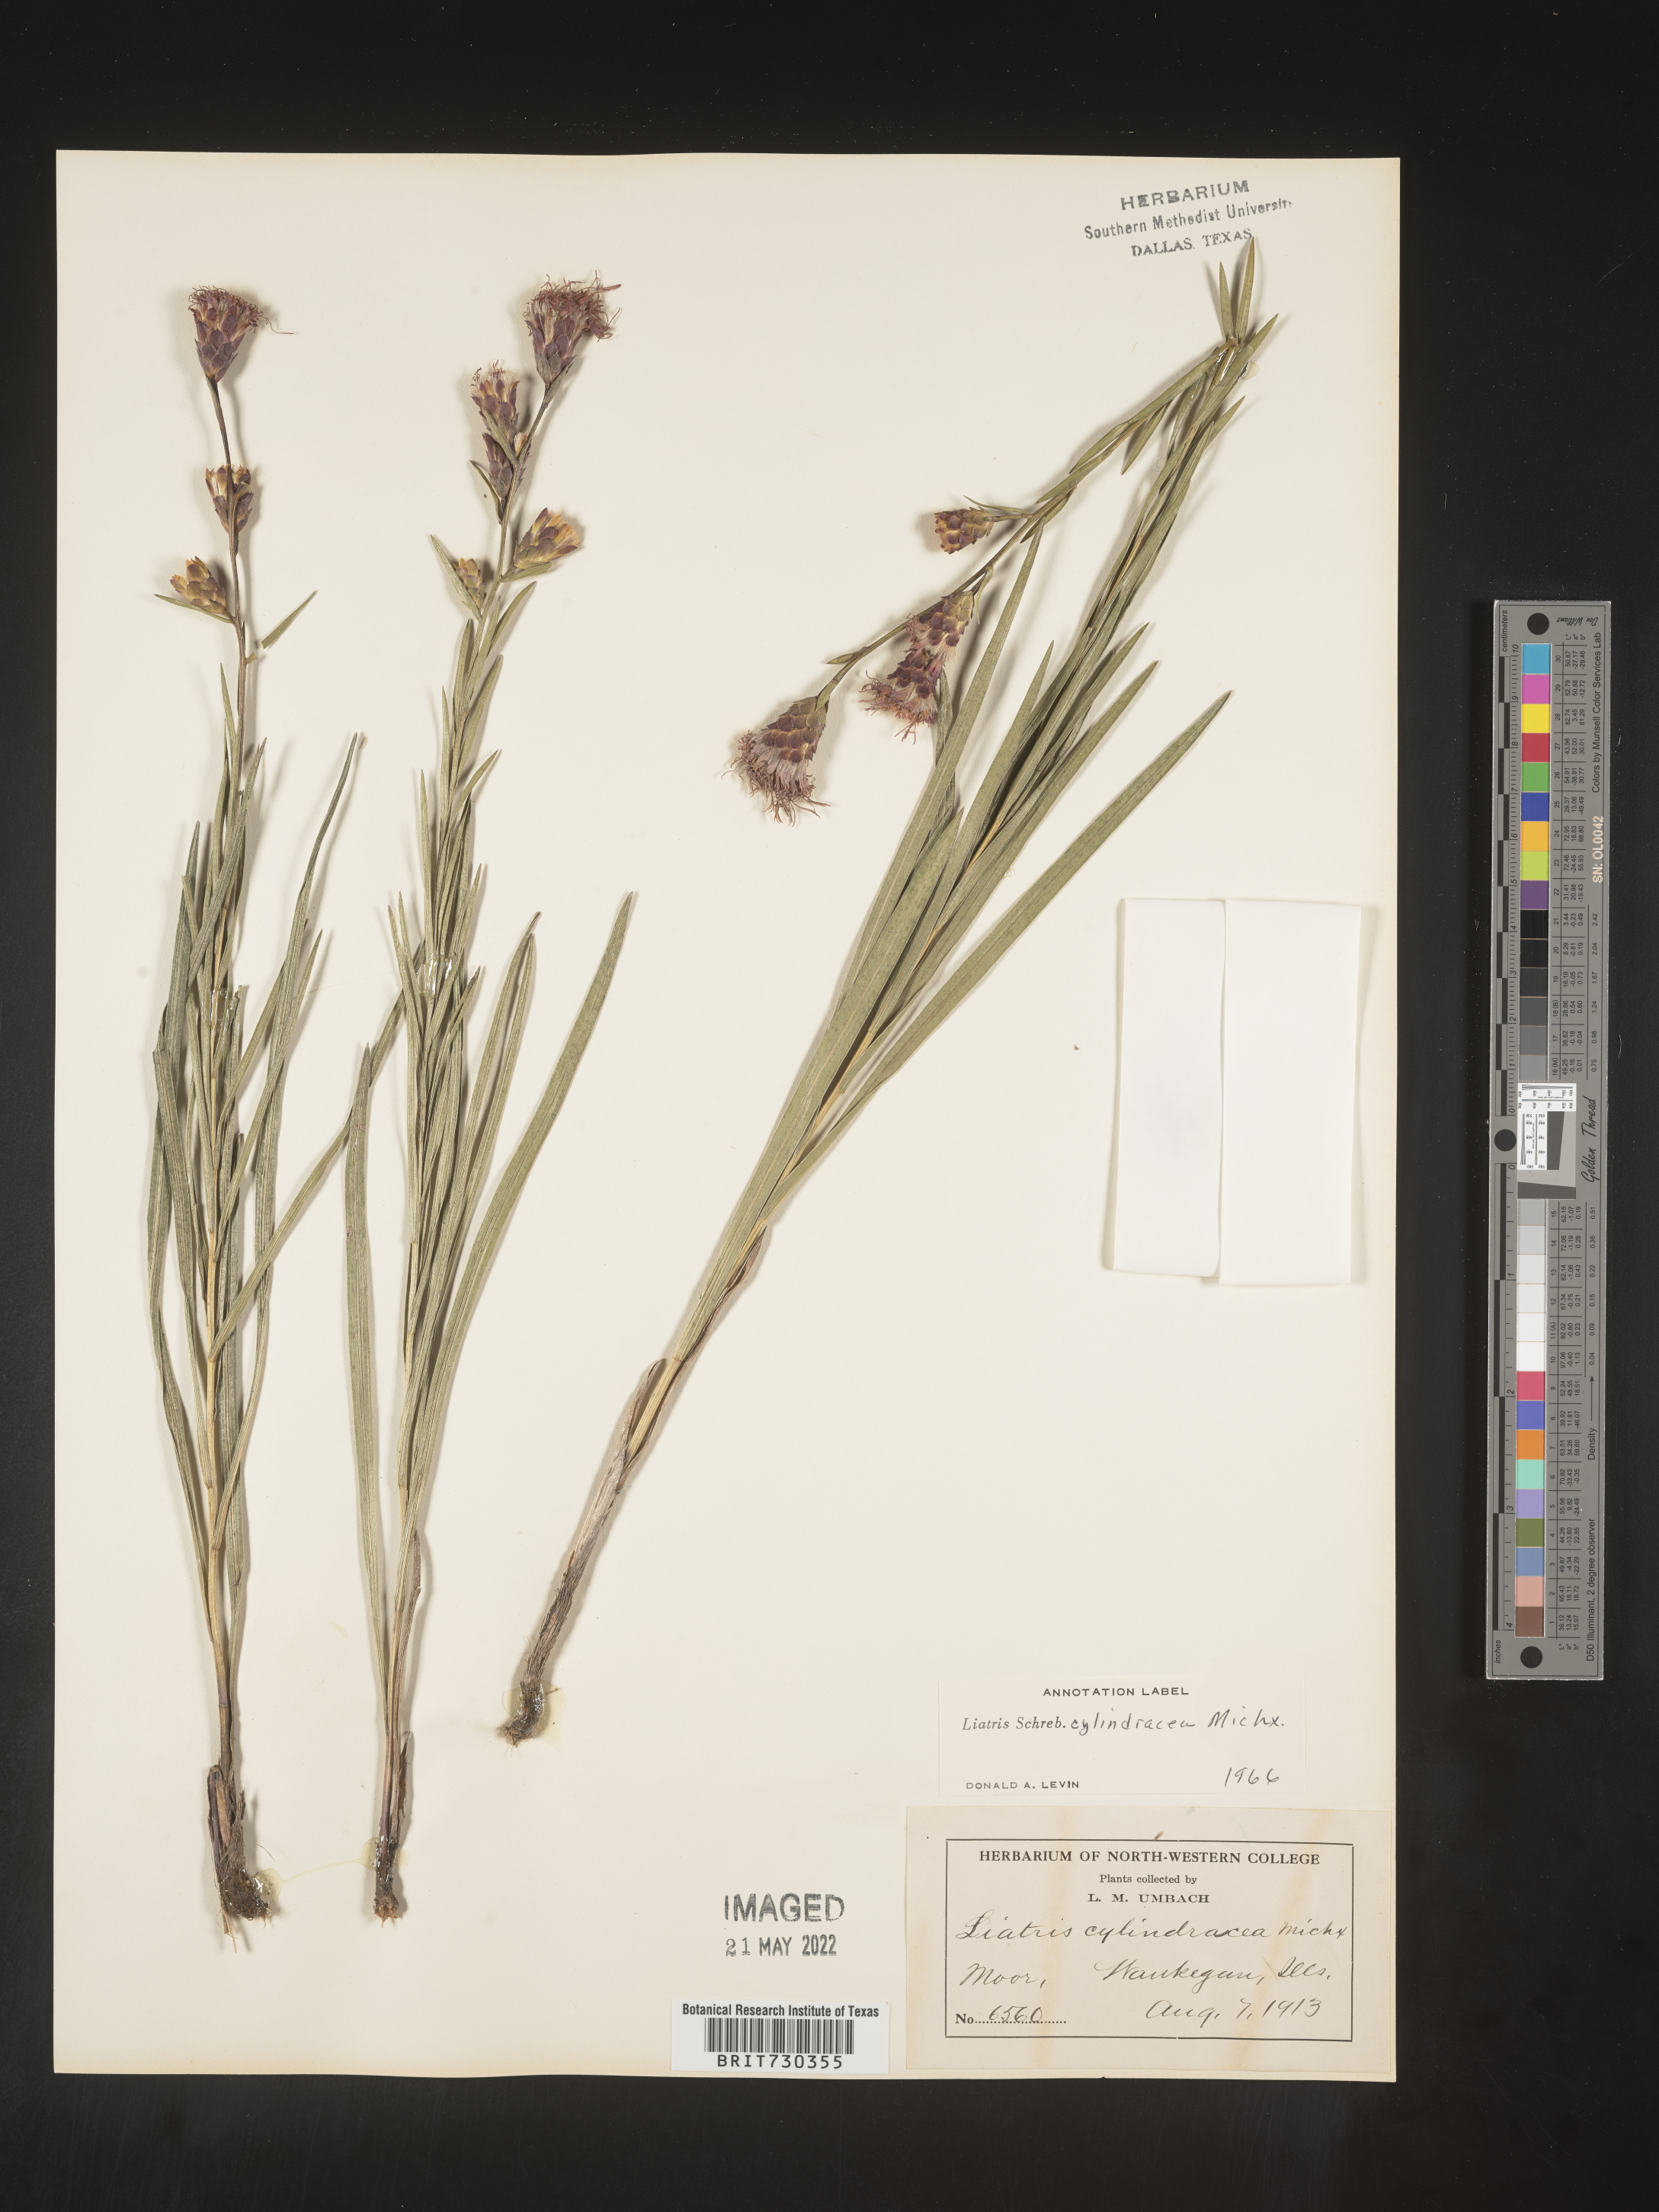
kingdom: Plantae
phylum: Tracheophyta
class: Magnoliopsida
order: Asterales
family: Asteraceae
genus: Liatris
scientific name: Liatris cylindracea
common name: Few-head blazingstar
